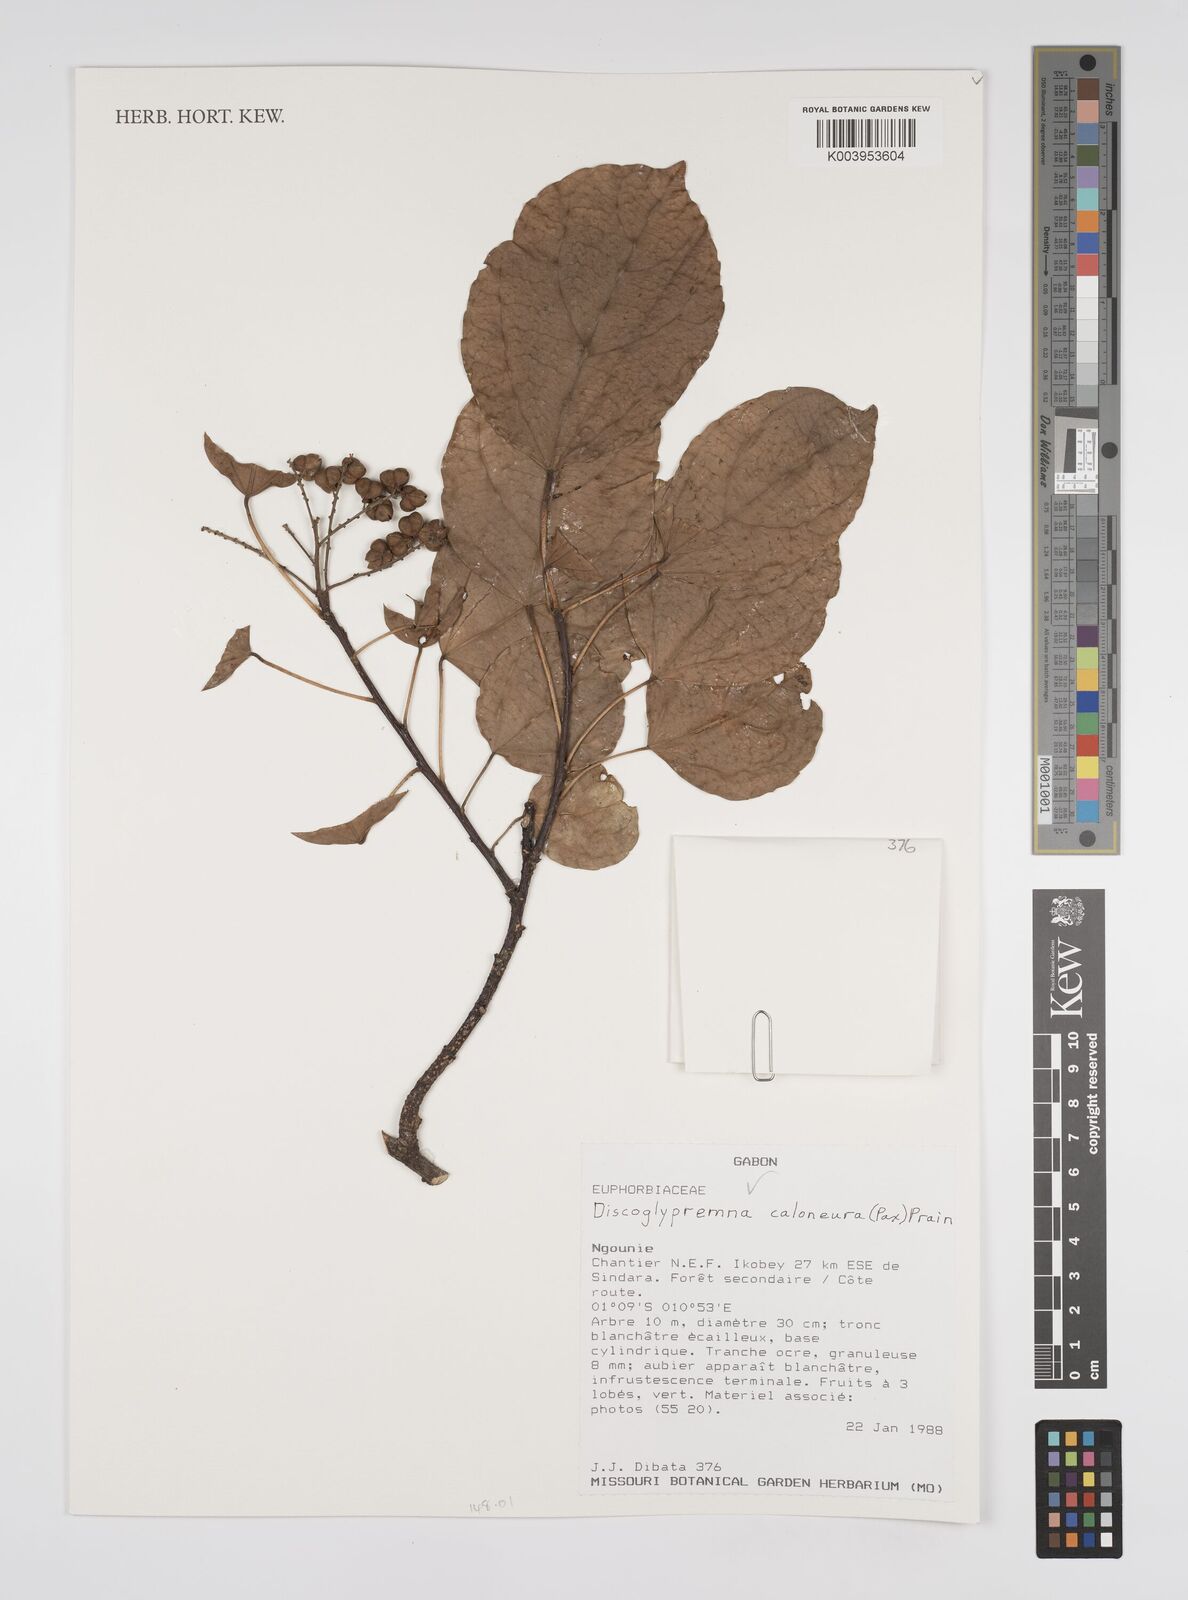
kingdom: Plantae
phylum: Tracheophyta
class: Magnoliopsida
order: Malpighiales
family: Euphorbiaceae
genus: Discoglypremna
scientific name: Discoglypremna caloneura
